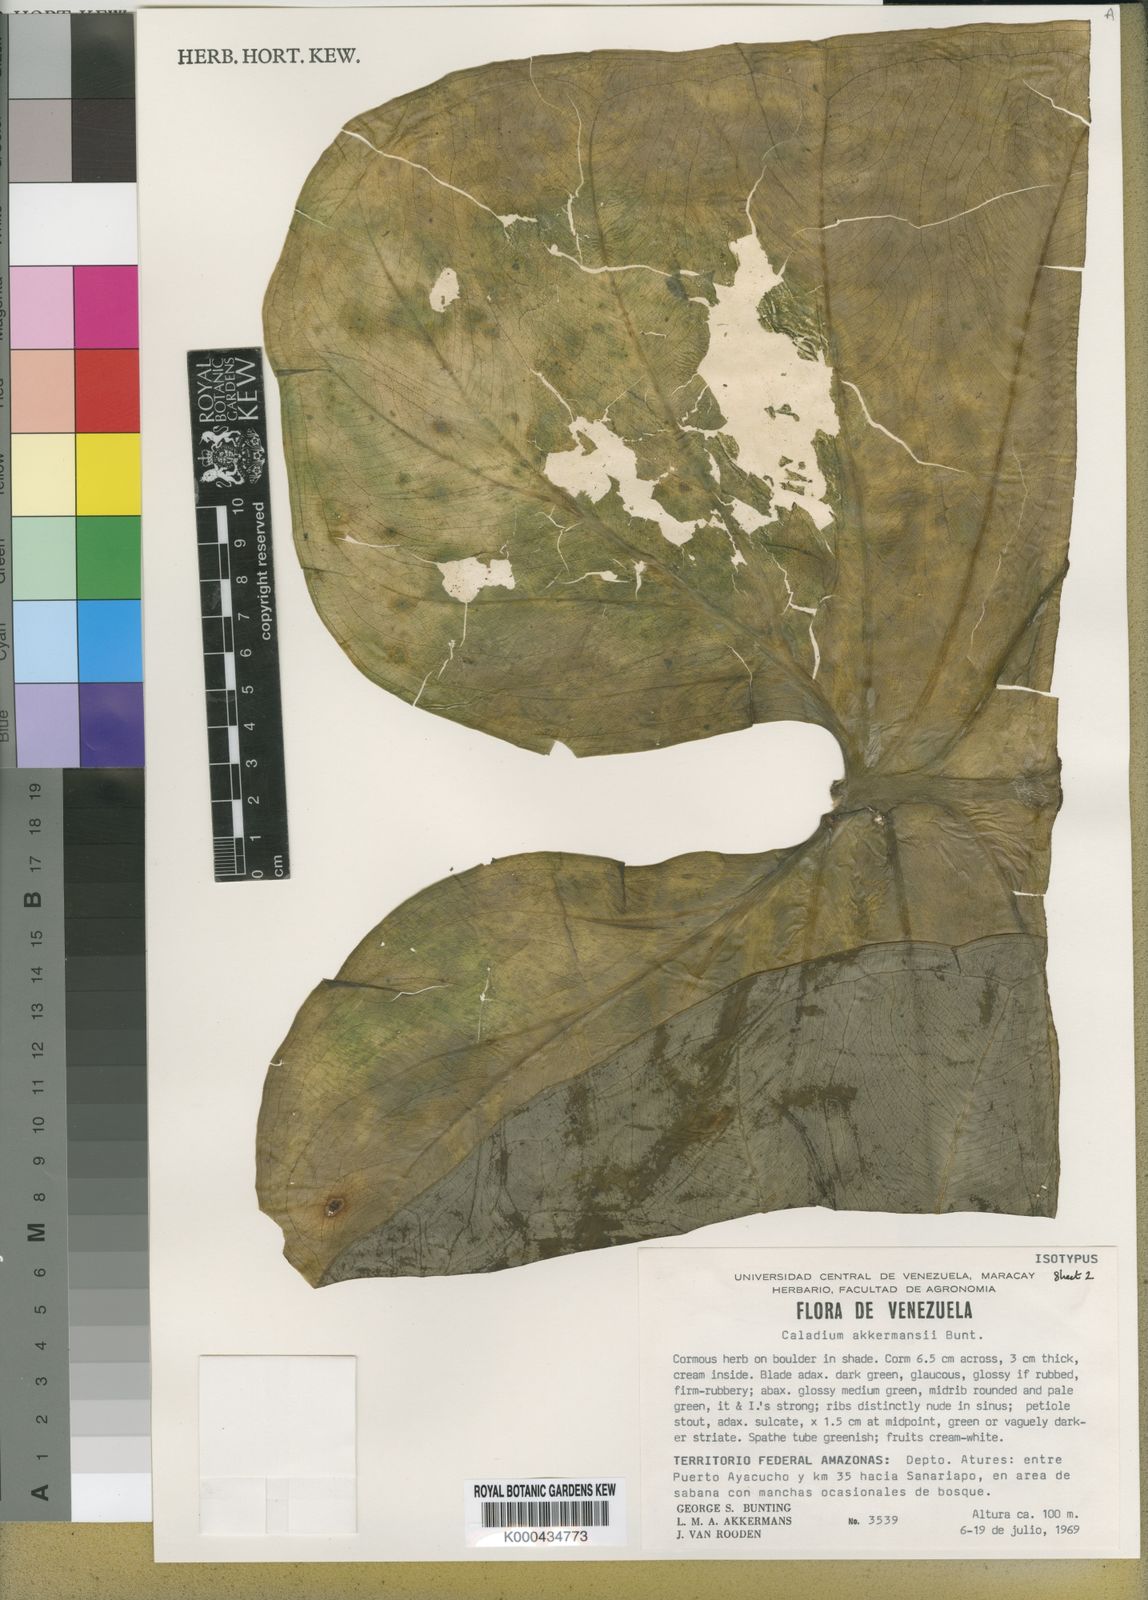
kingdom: Plantae
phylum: Tracheophyta
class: Liliopsida
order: Alismatales
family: Araceae
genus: Xanthosoma
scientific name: Xanthosoma akkermansii
